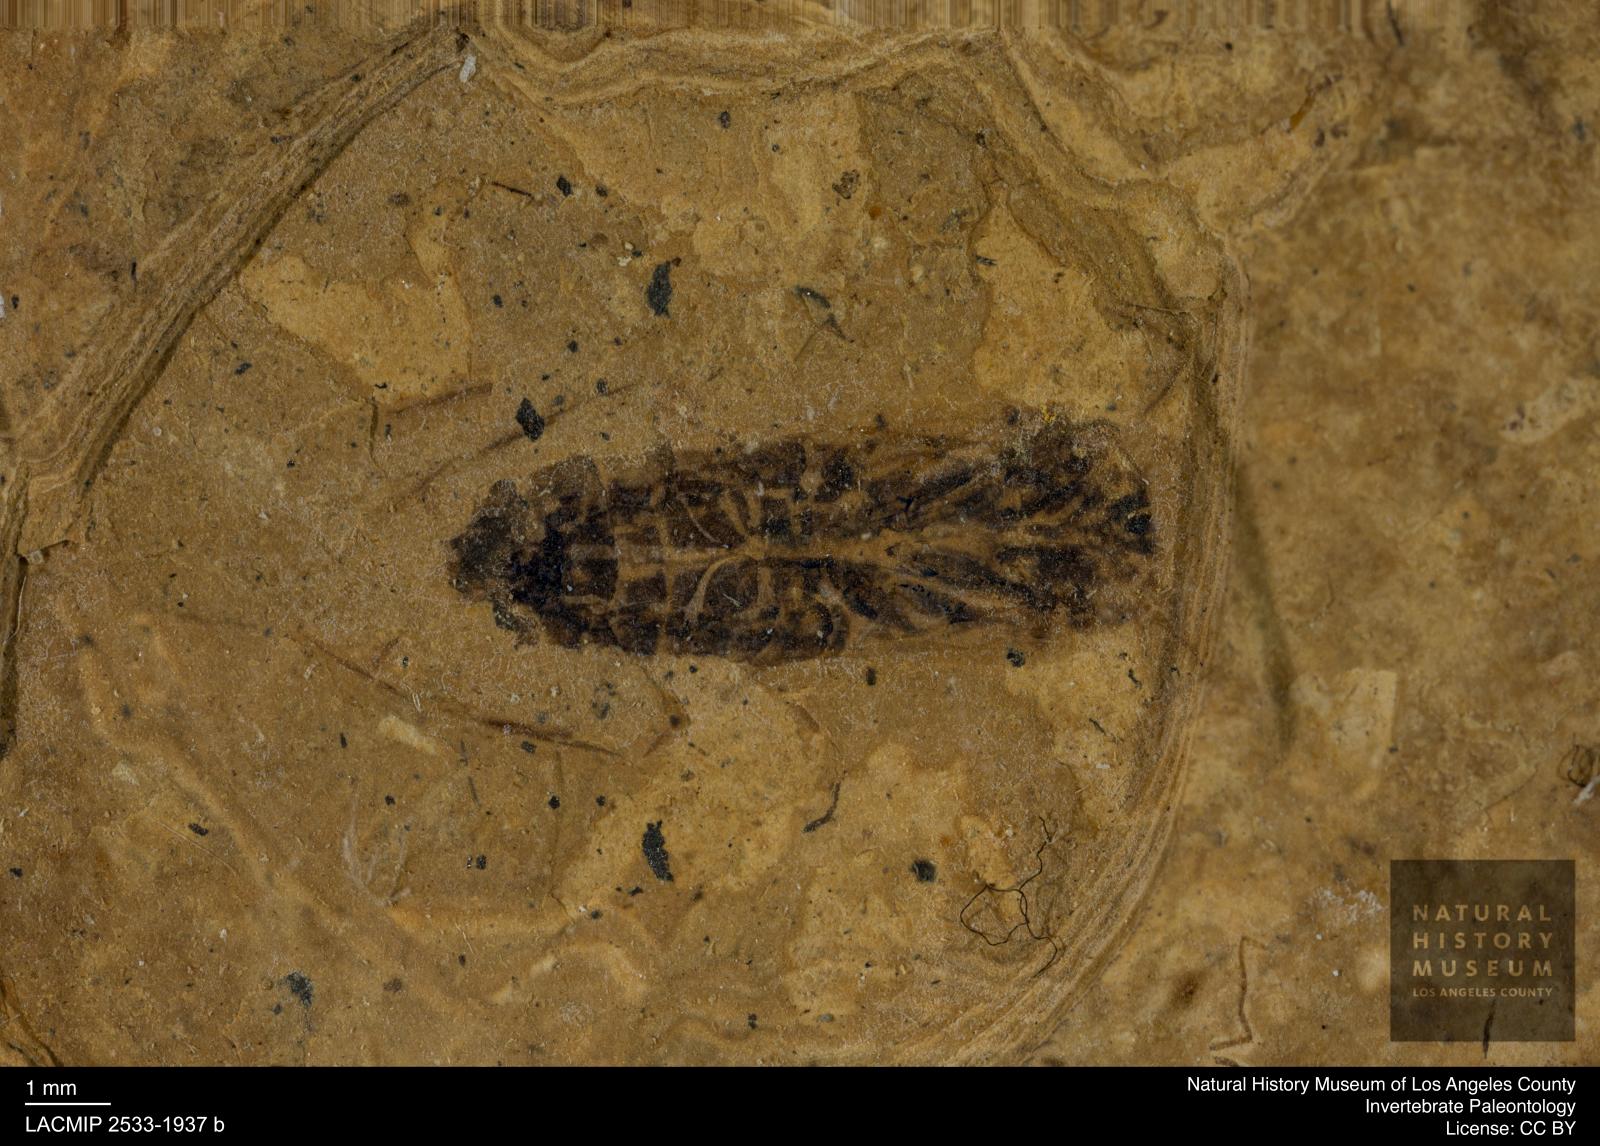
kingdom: Animalia
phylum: Arthropoda
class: Insecta
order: Hemiptera
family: Notonectidae
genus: Anisops
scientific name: Anisops Notonecta deichmuelleri
